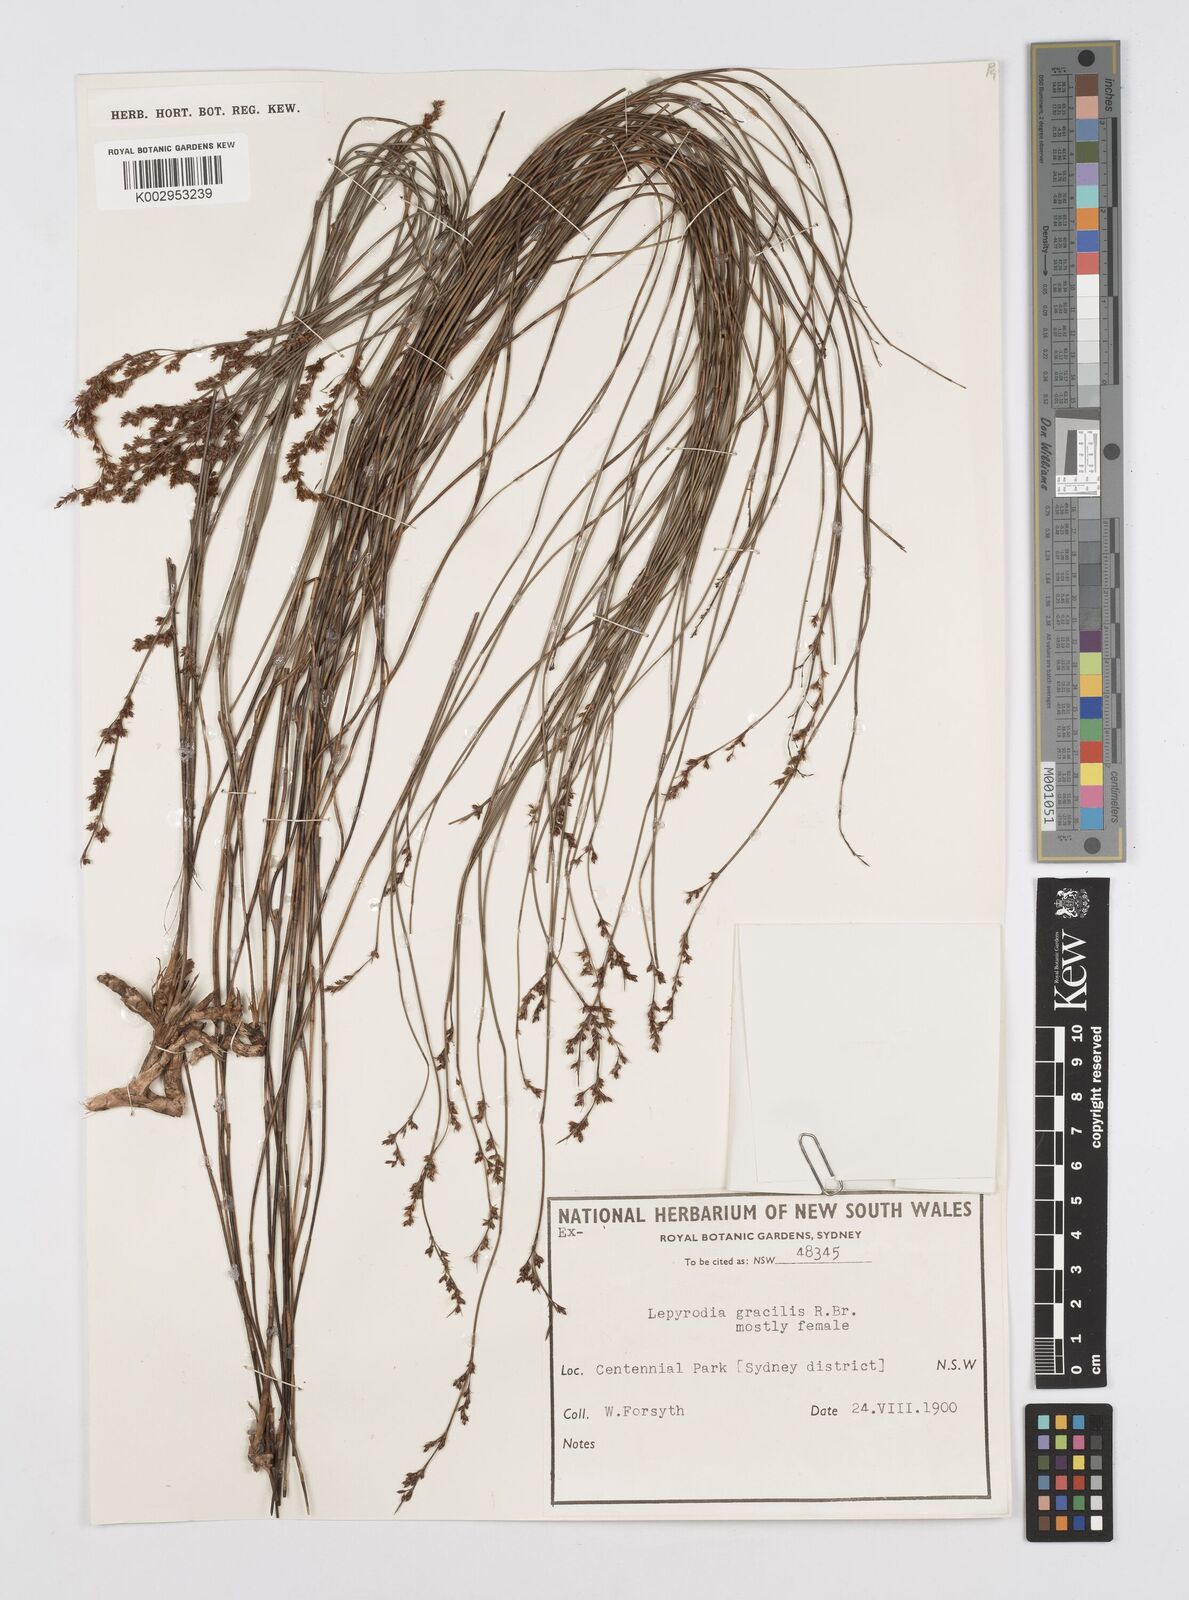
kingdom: Plantae
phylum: Tracheophyta
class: Liliopsida
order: Poales
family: Restionaceae
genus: Sporadanthus
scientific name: Sporadanthus gracilis
